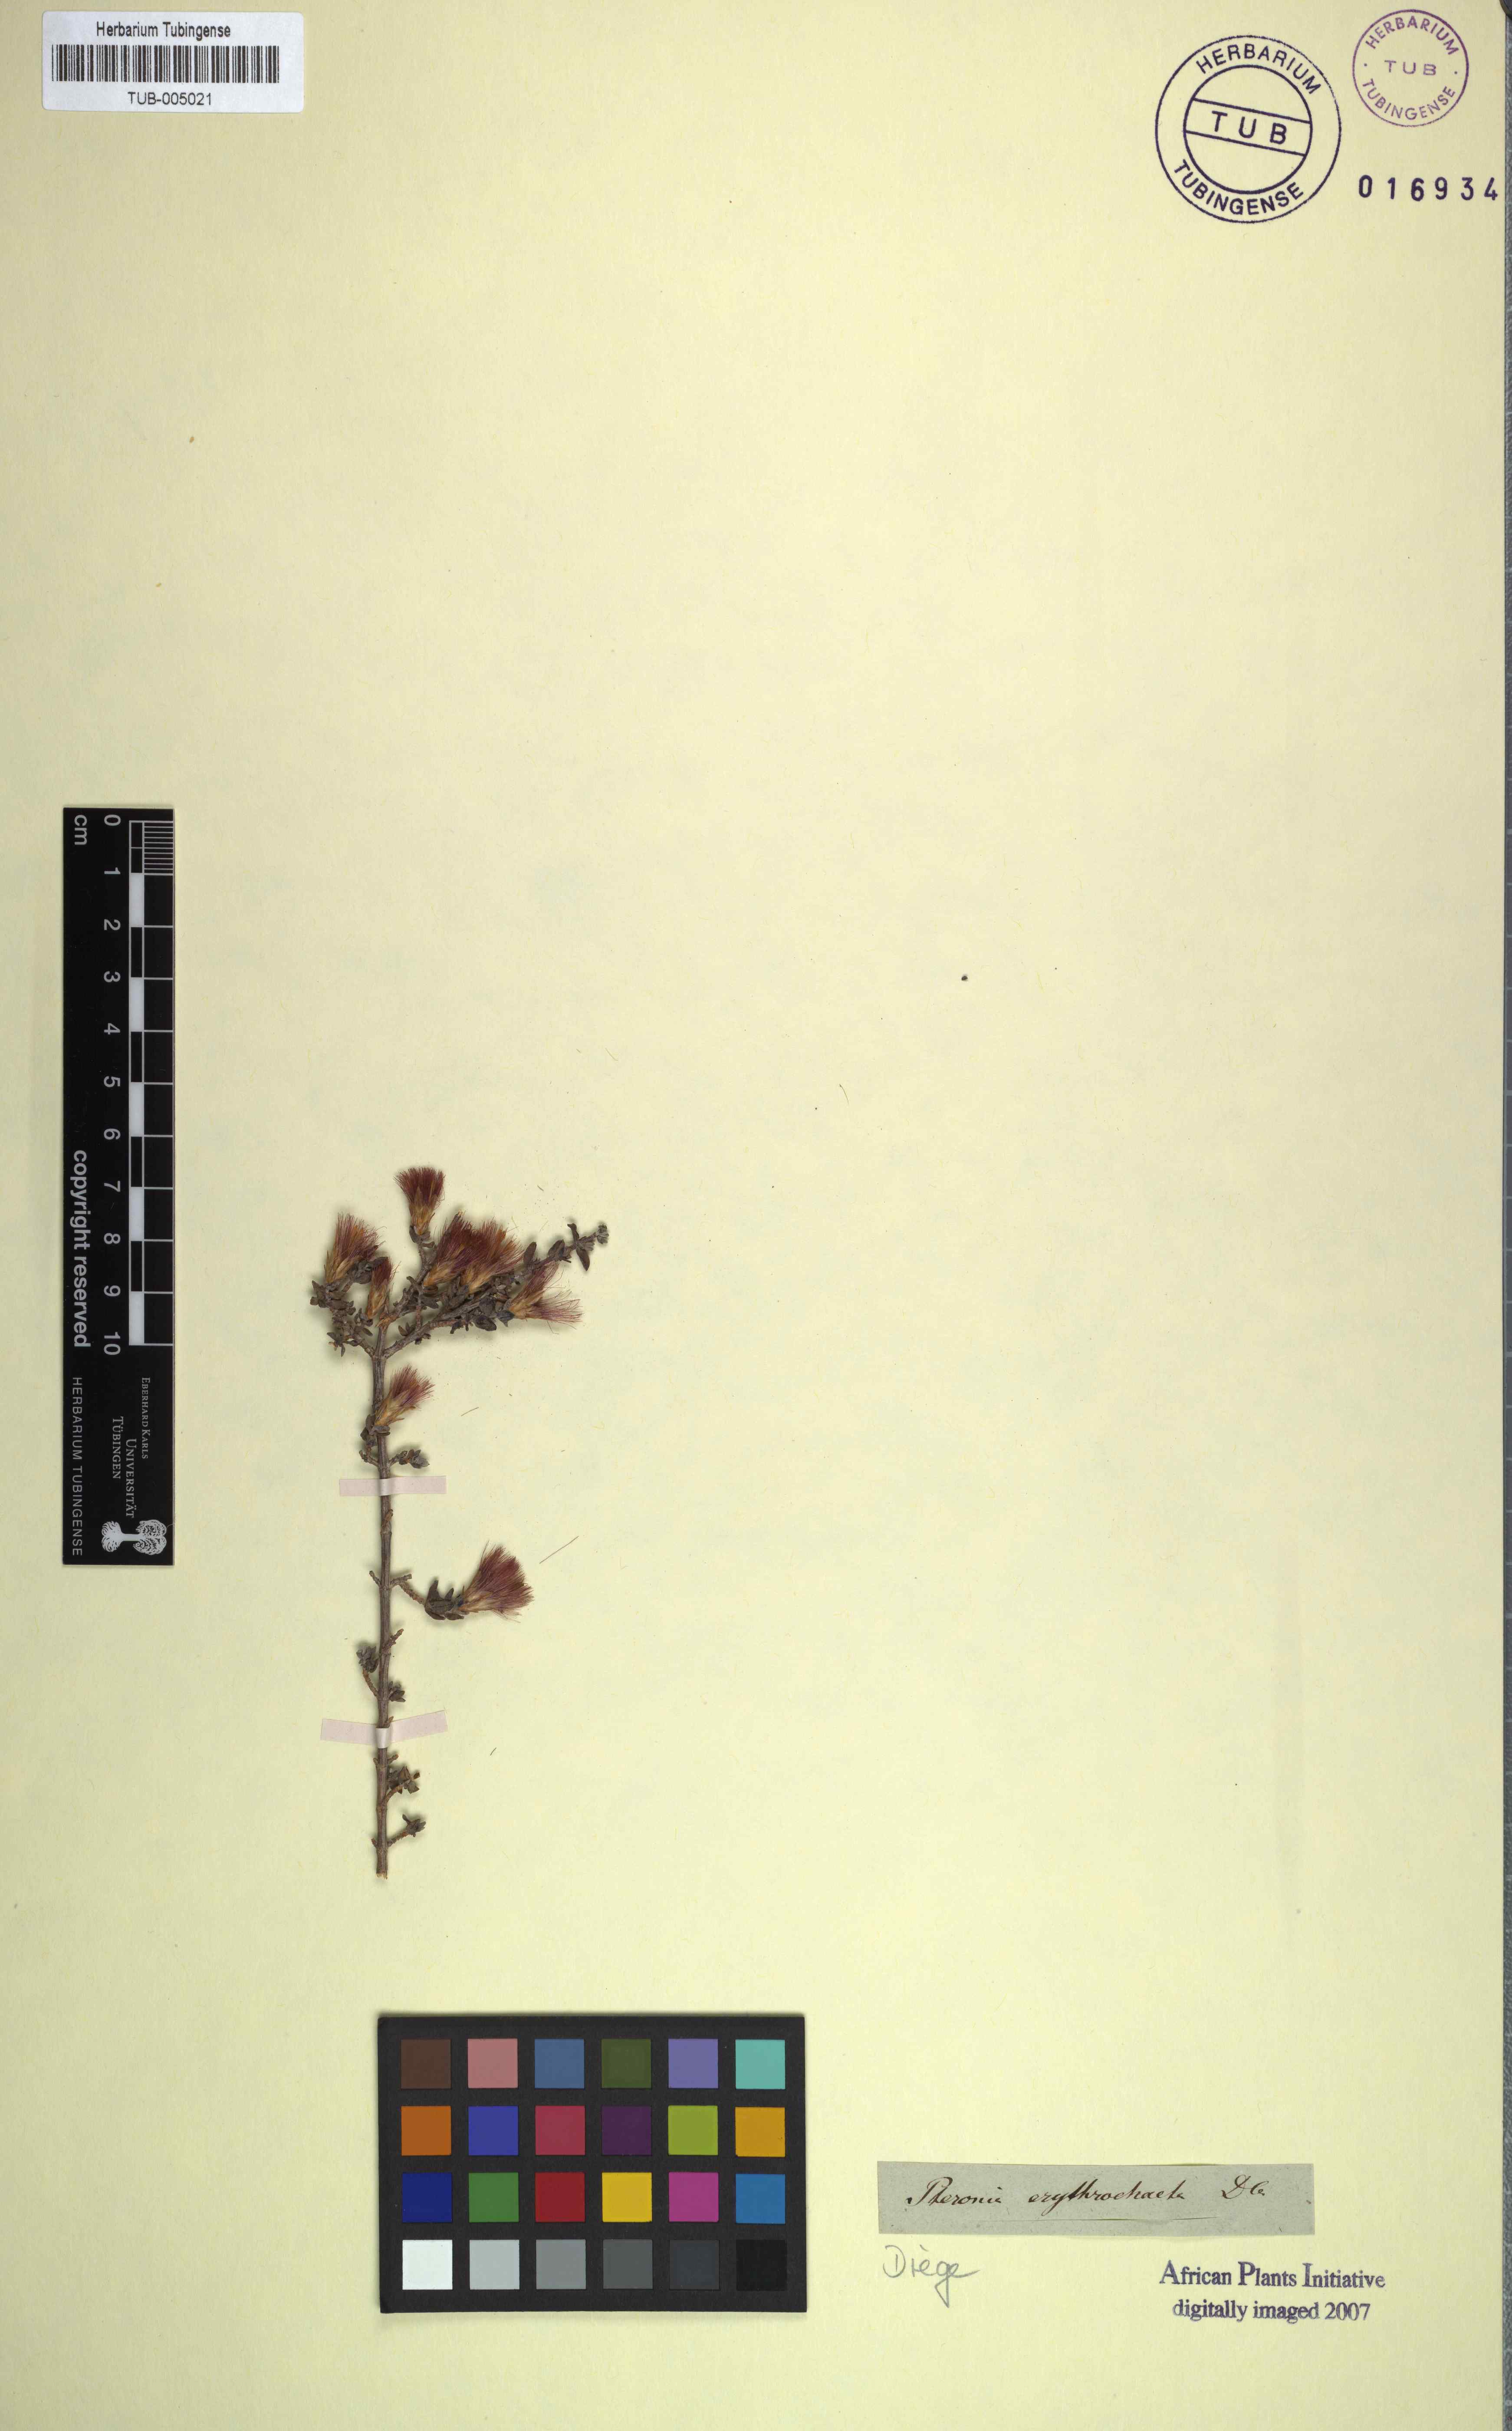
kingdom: Plantae
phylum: Tracheophyta
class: Magnoliopsida
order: Asterales
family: Asteraceae
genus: Pteronia
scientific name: Pteronia erythrochaeta
